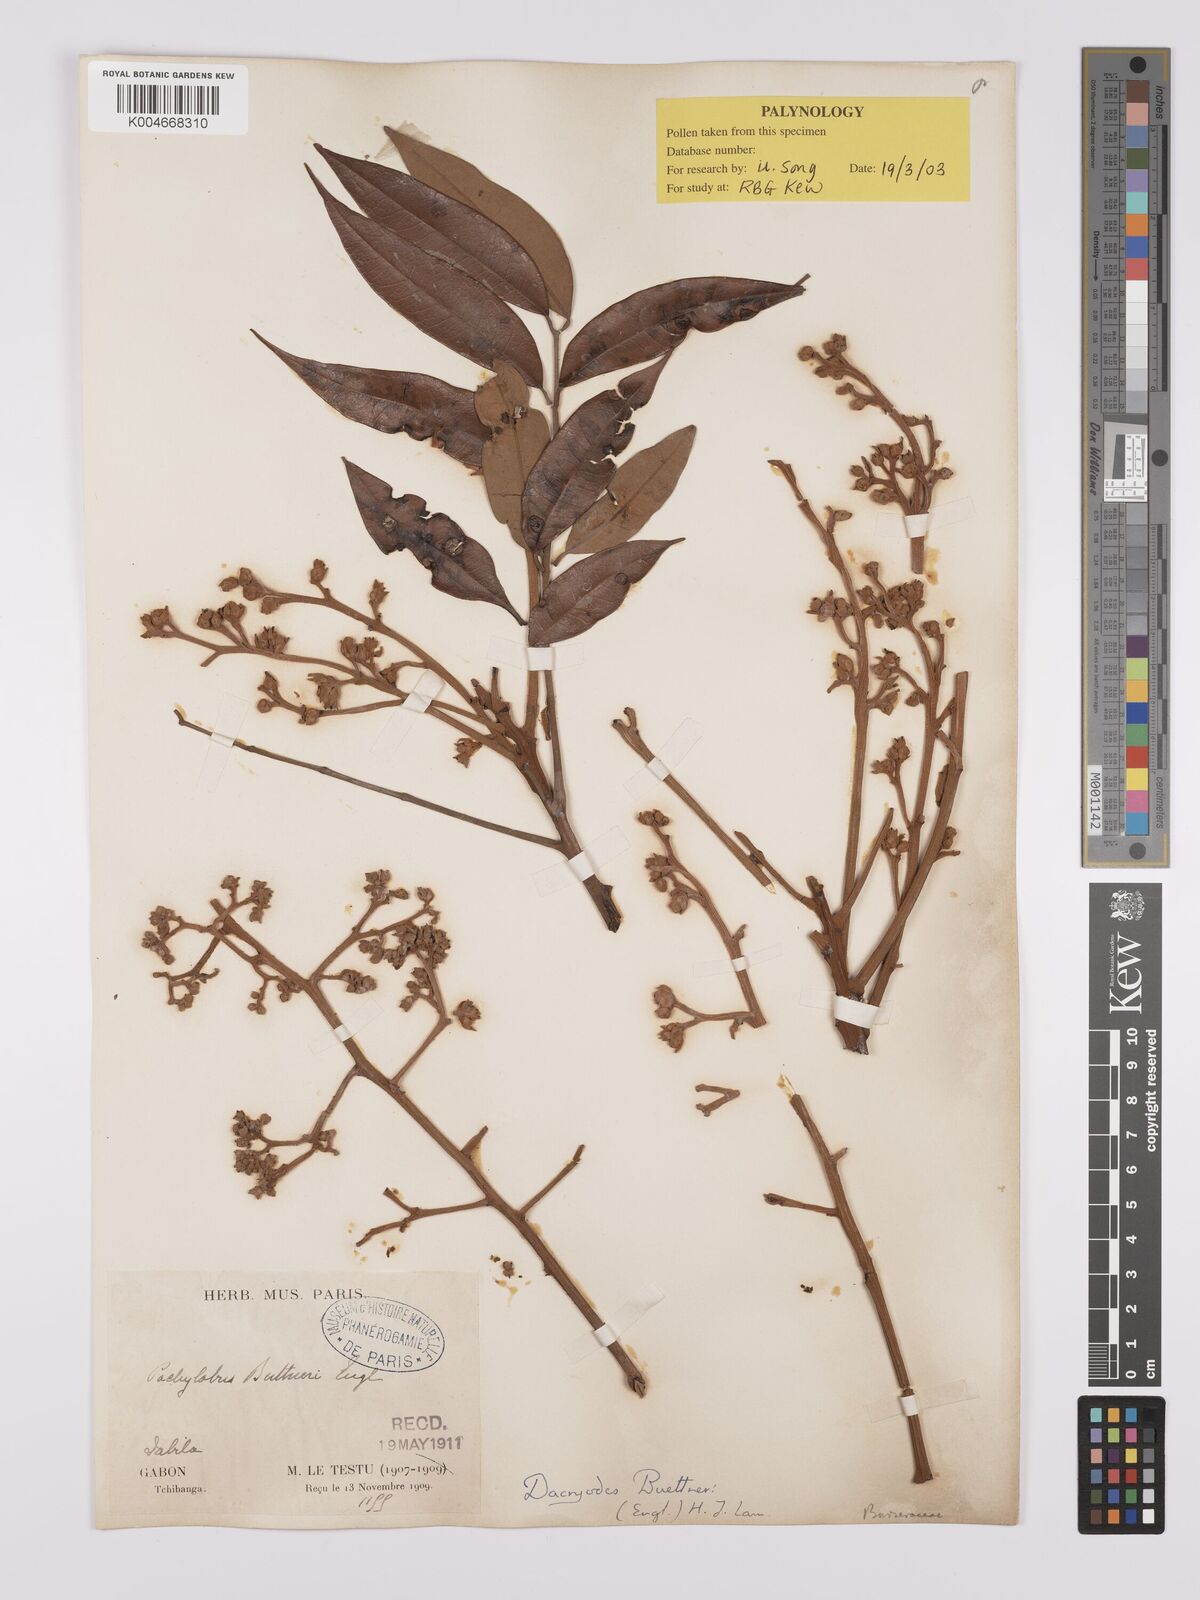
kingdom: Plantae
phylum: Tracheophyta
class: Magnoliopsida
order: Sapindales
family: Burseraceae
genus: Pachylobus
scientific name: Pachylobus buettneri
